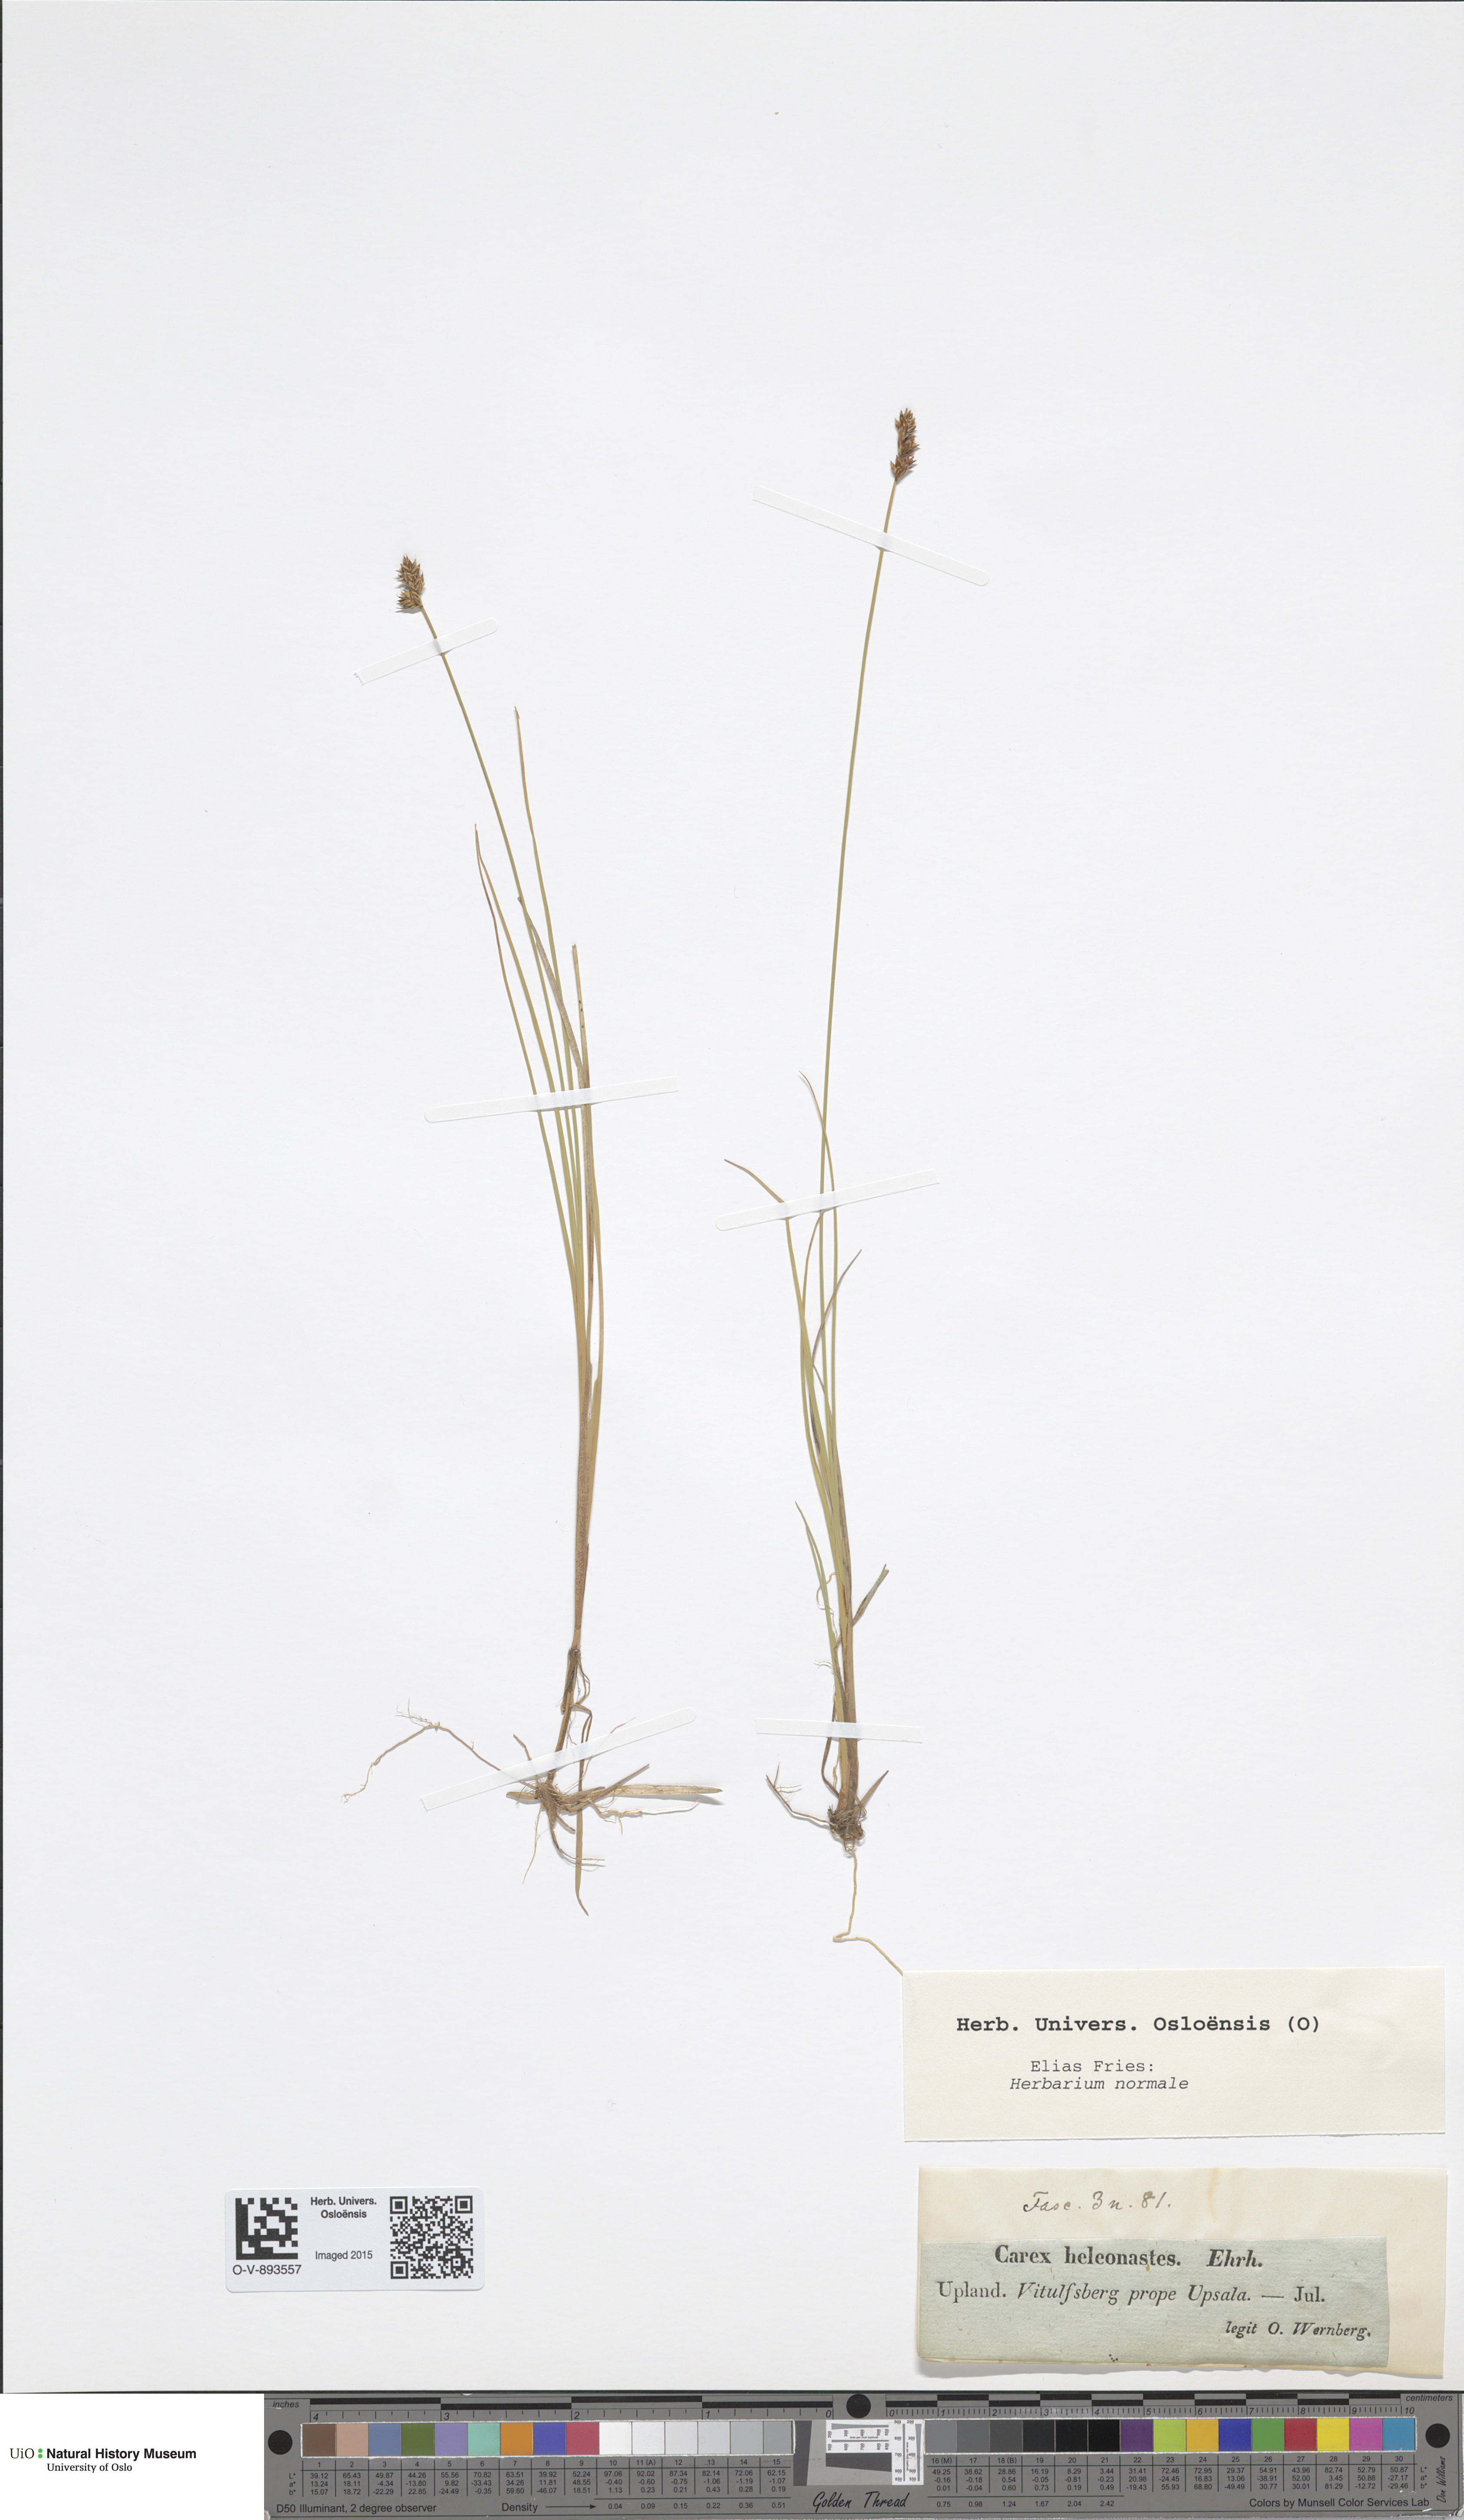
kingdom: Plantae
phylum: Tracheophyta
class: Liliopsida
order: Poales
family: Cyperaceae
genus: Carex
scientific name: Carex heleonastes
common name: Hudson bay sedge
